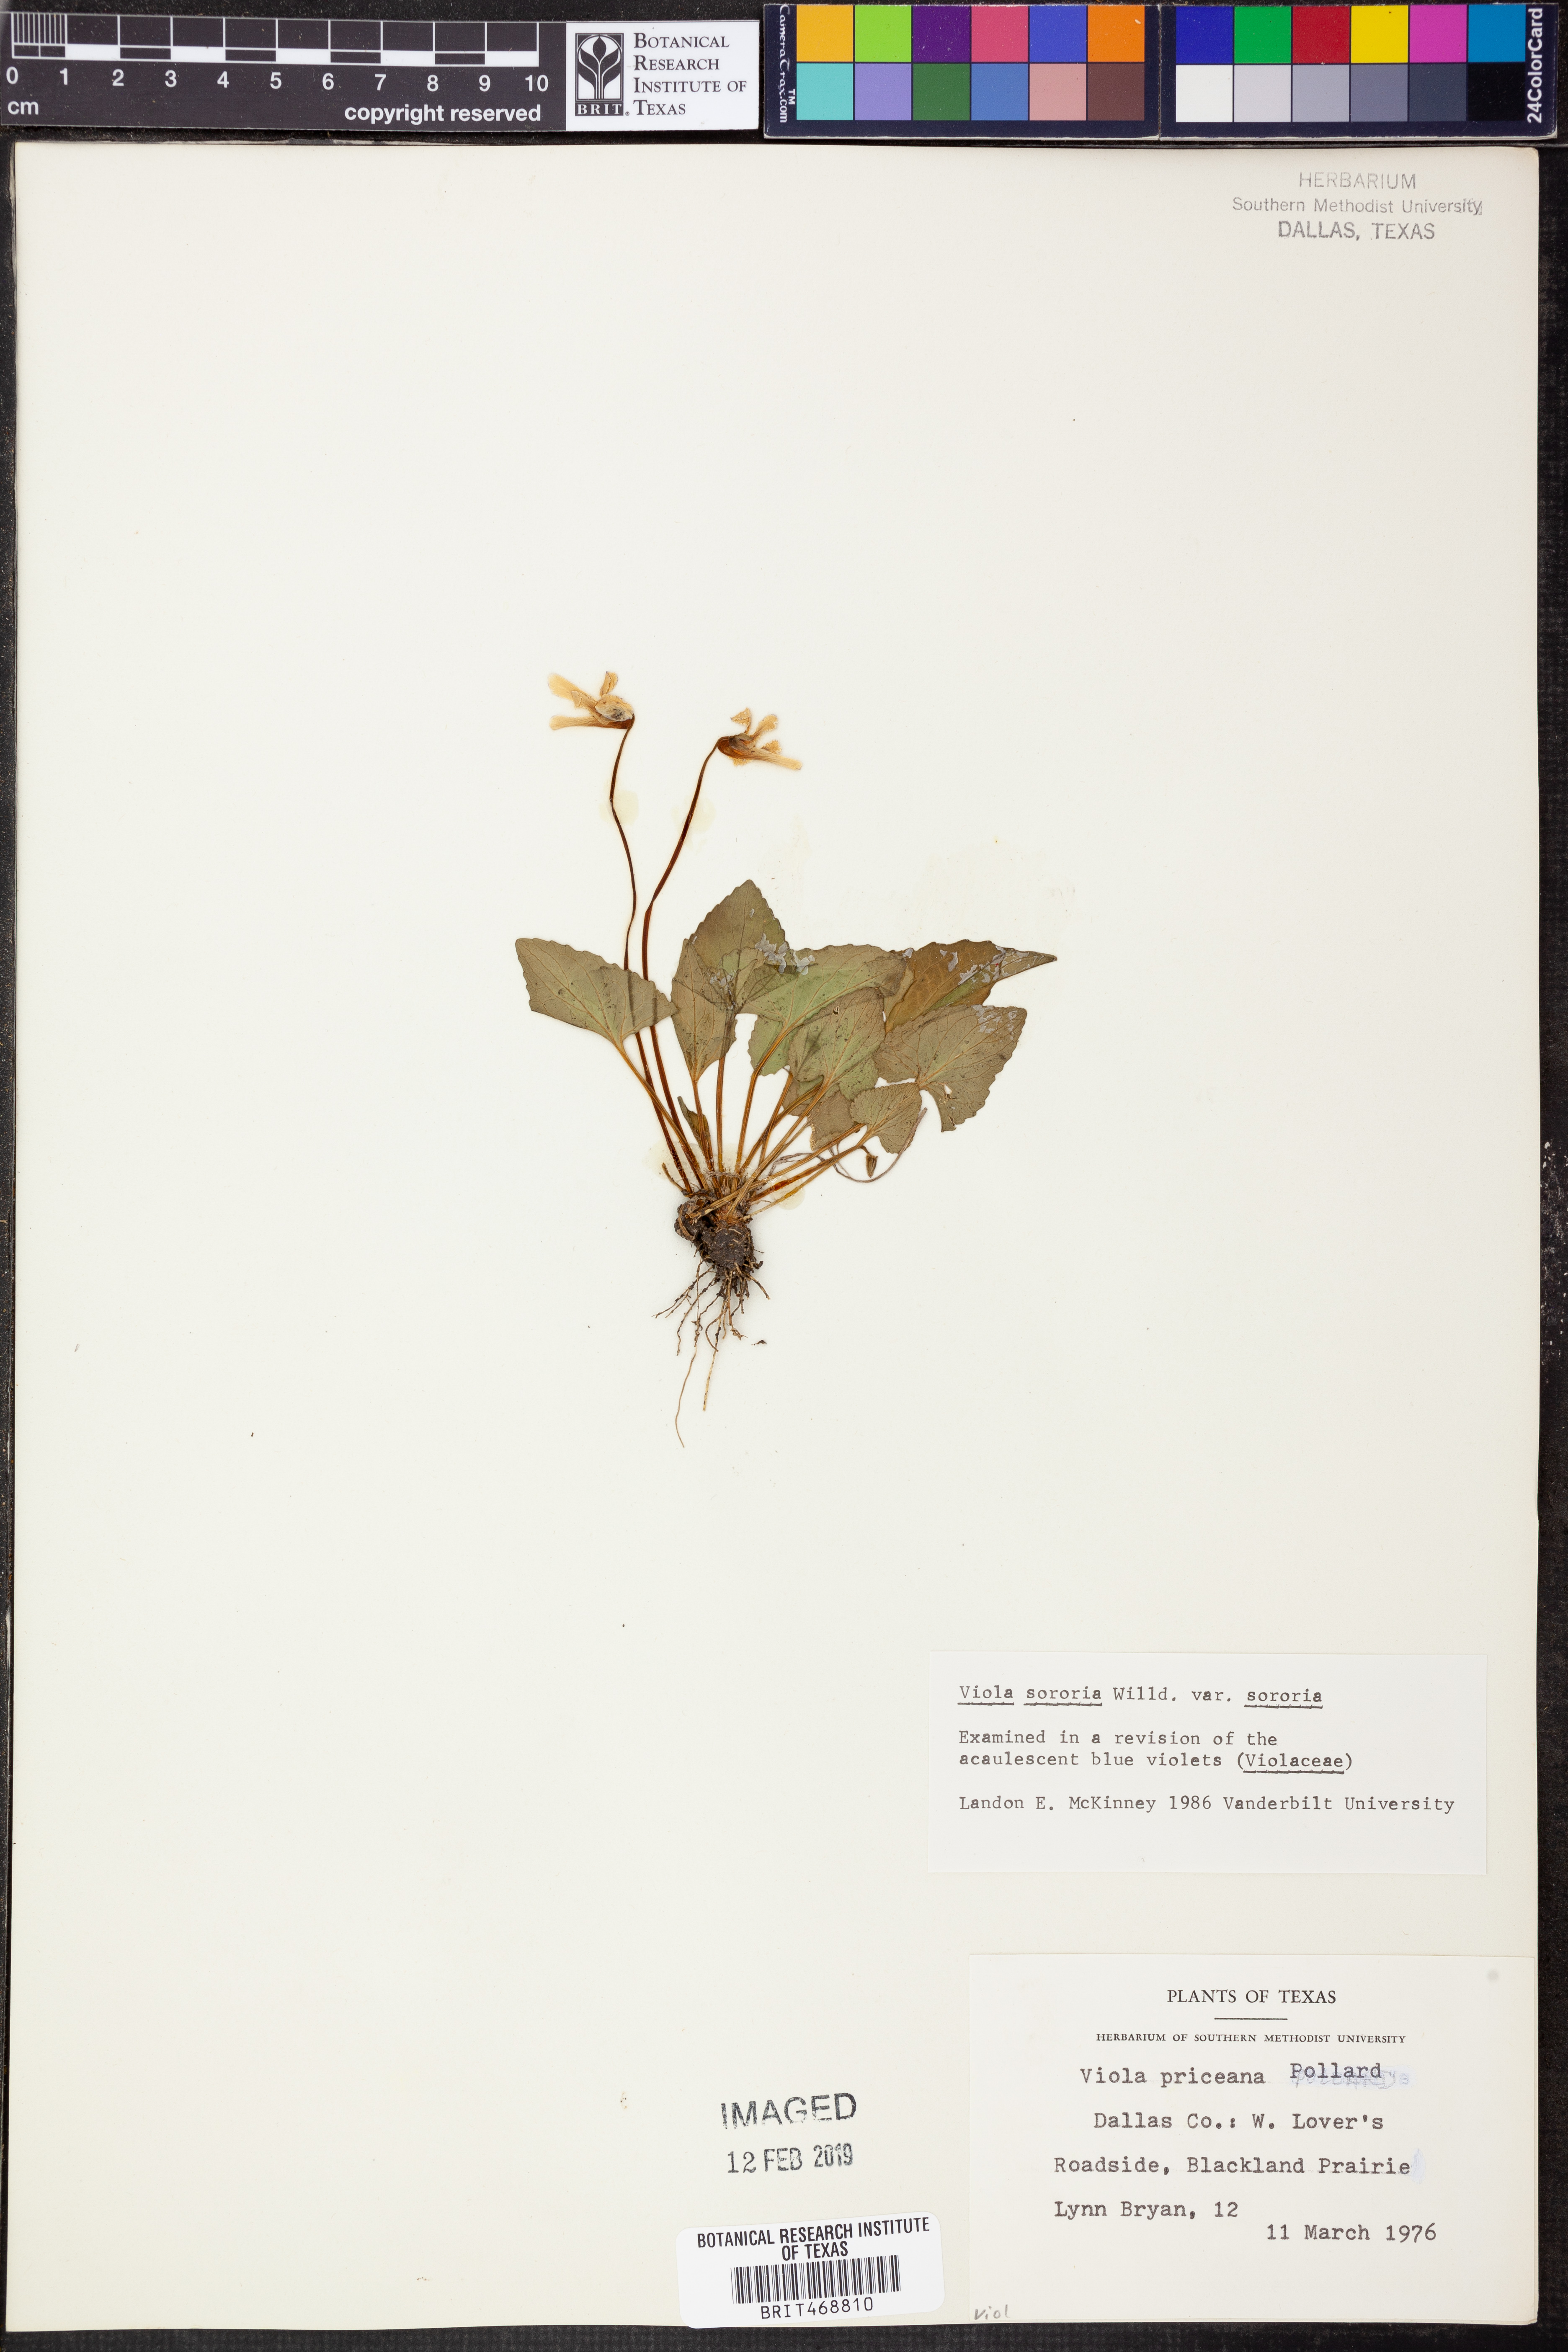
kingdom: Plantae
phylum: Tracheophyta
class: Magnoliopsida
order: Malpighiales
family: Violaceae
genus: Viola
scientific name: Viola sororia
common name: Dooryard violet
